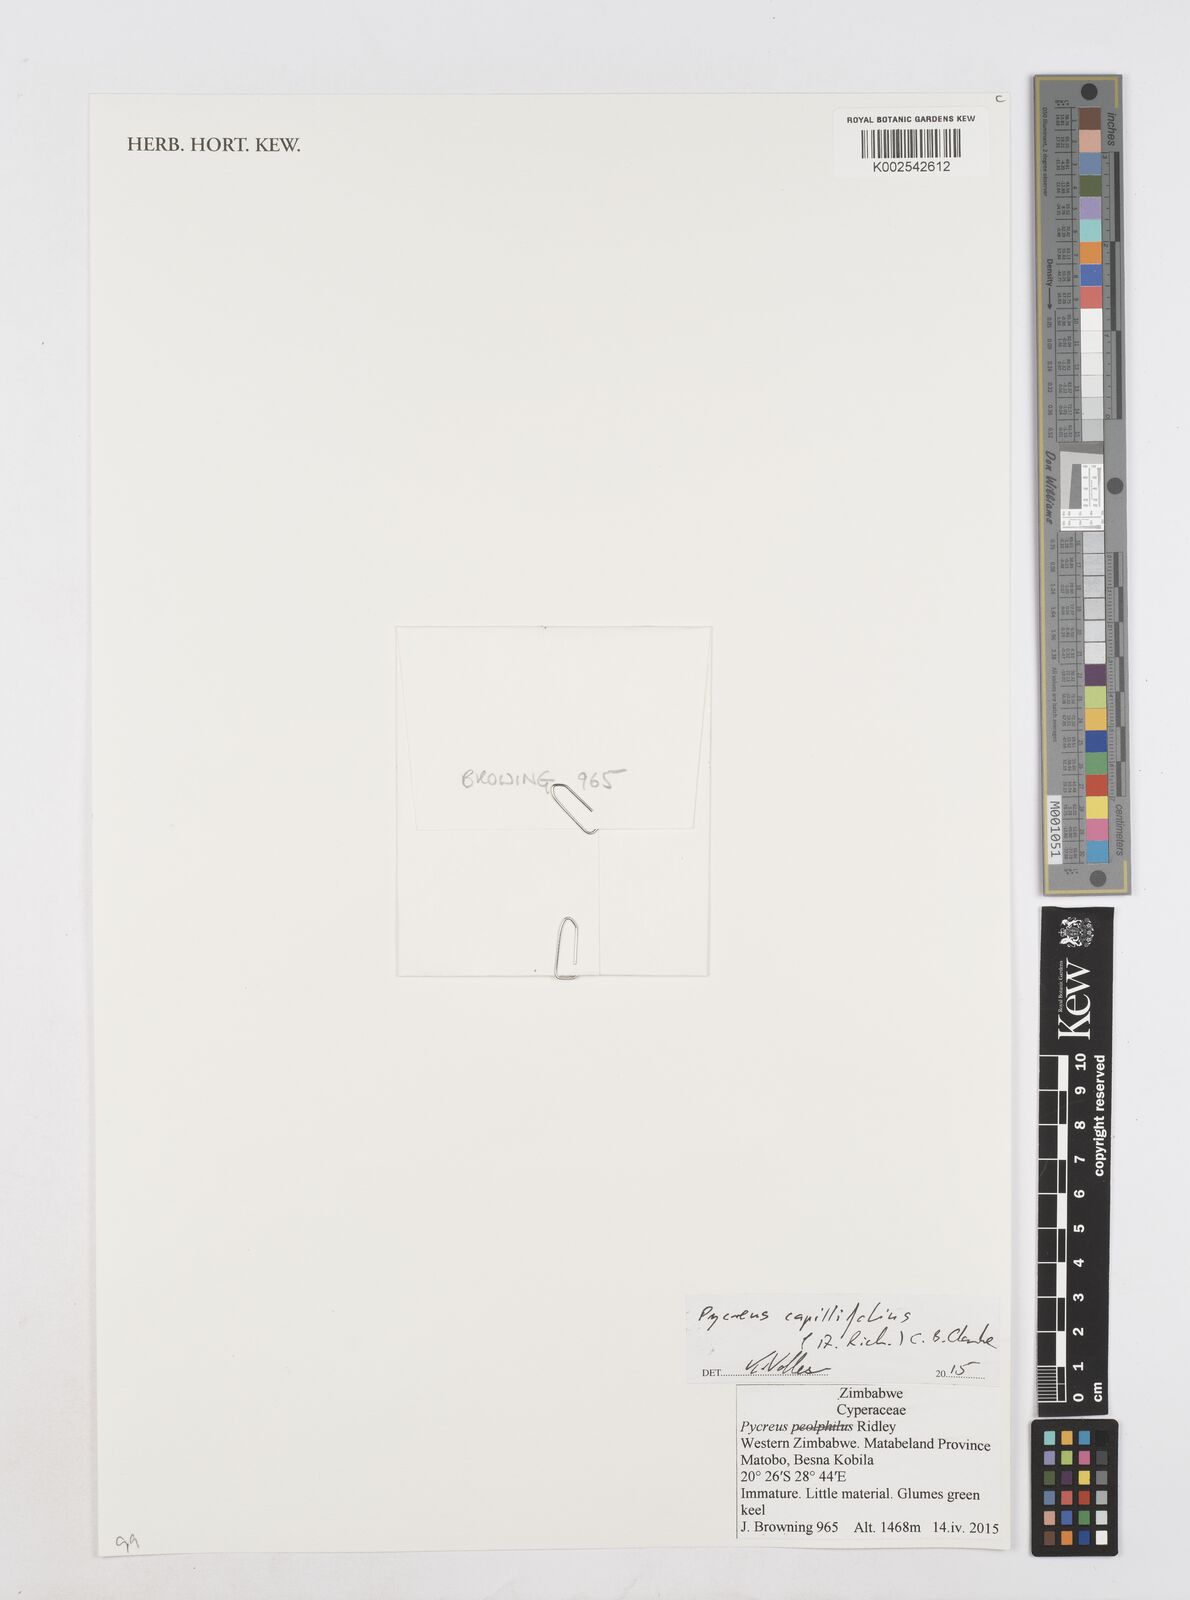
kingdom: Plantae
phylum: Tracheophyta
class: Liliopsida
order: Poales
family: Cyperaceae
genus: Cyperus
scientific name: Cyperus capillifolius
